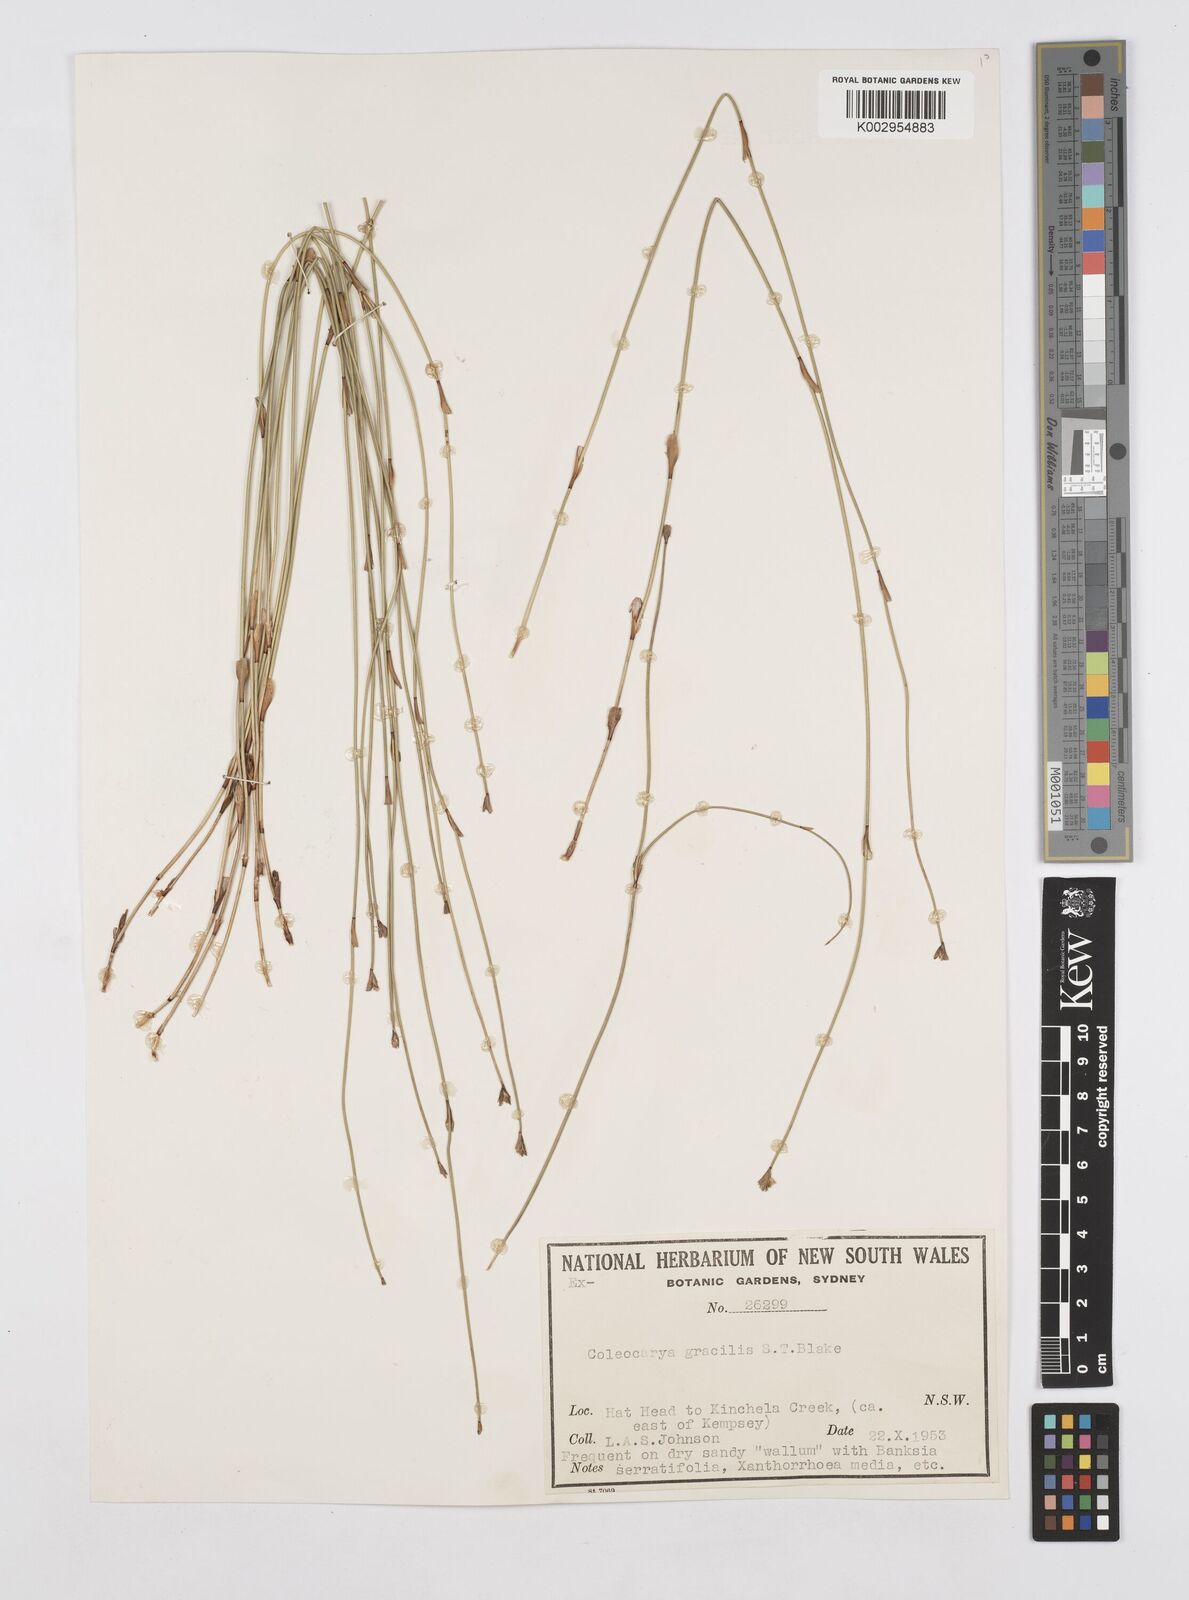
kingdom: Plantae
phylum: Tracheophyta
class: Liliopsida
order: Poales
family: Restionaceae
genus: Coleocarya
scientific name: Coleocarya gracilis
